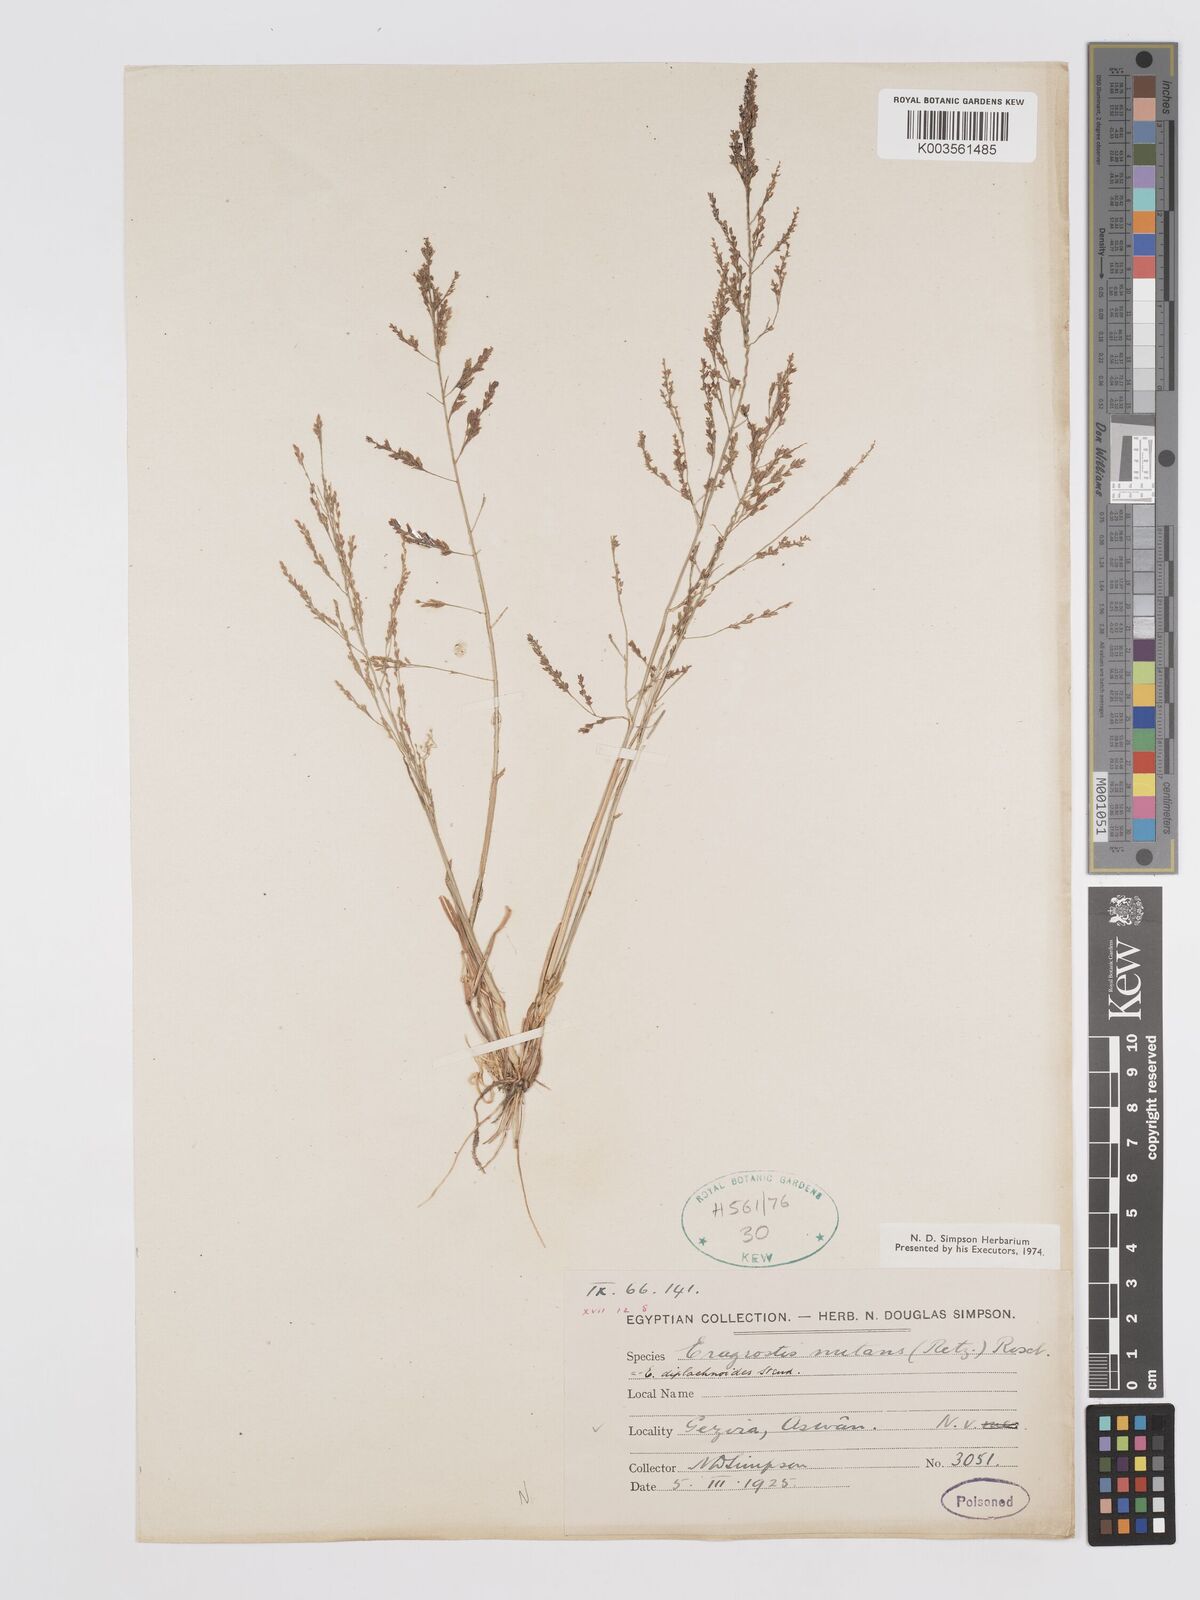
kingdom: Plantae
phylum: Tracheophyta
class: Liliopsida
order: Poales
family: Poaceae
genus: Eragrostis
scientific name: Eragrostis japonica
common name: Pond lovegrass
